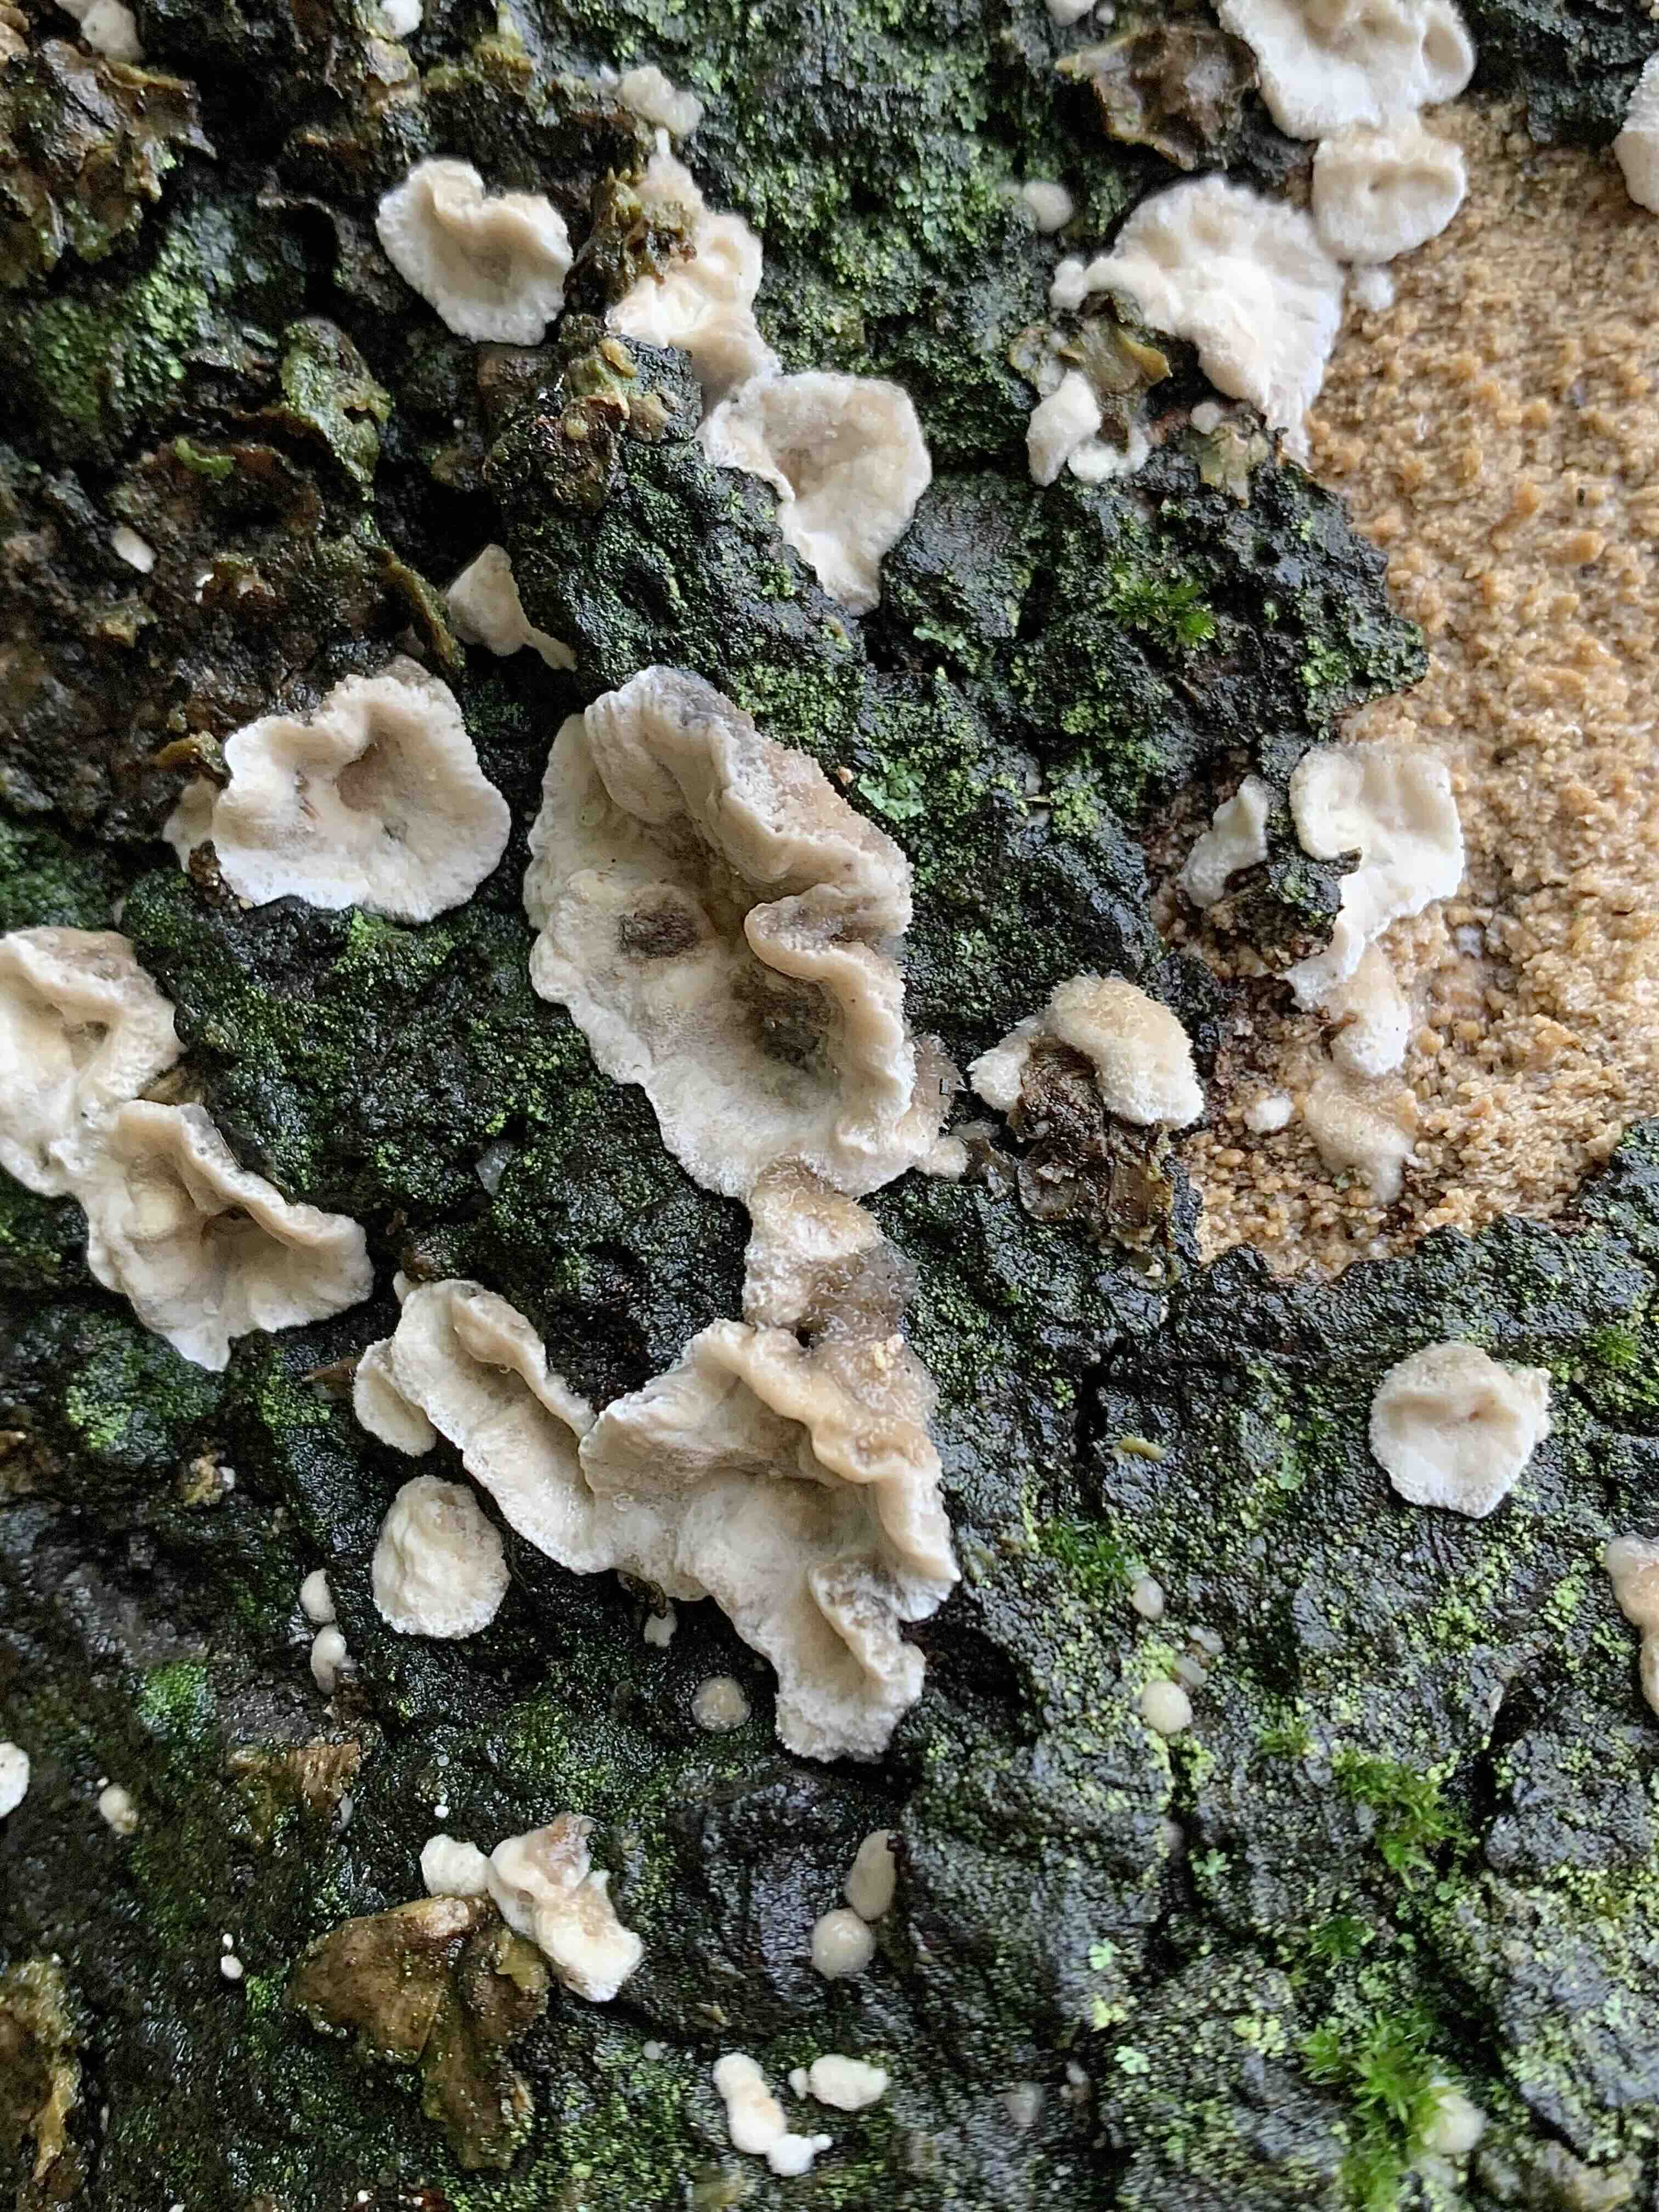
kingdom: Fungi
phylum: Basidiomycota
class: Agaricomycetes
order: Polyporales
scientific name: Polyporales
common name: poresvampordenen
